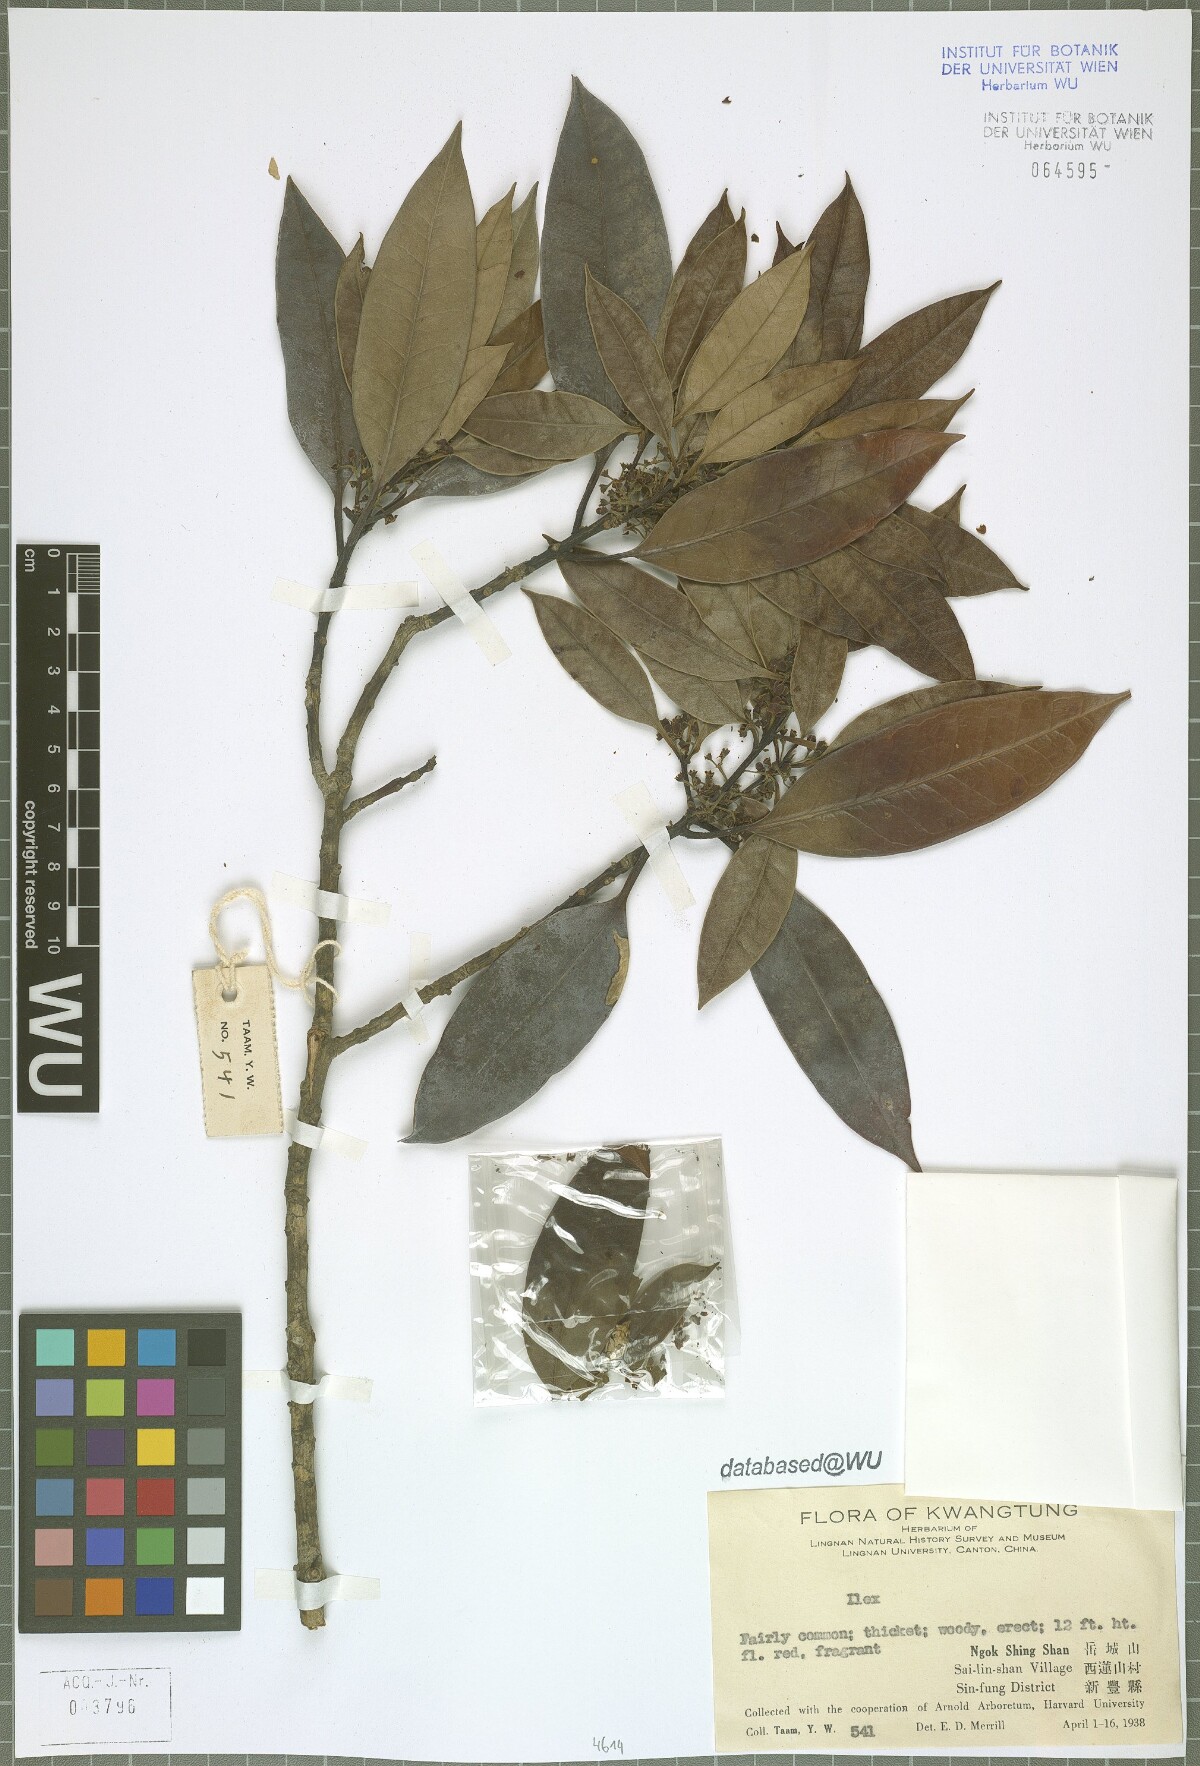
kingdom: Plantae
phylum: Tracheophyta
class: Magnoliopsida
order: Aquifoliales
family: Aquifoliaceae
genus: Ilex
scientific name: Ilex
